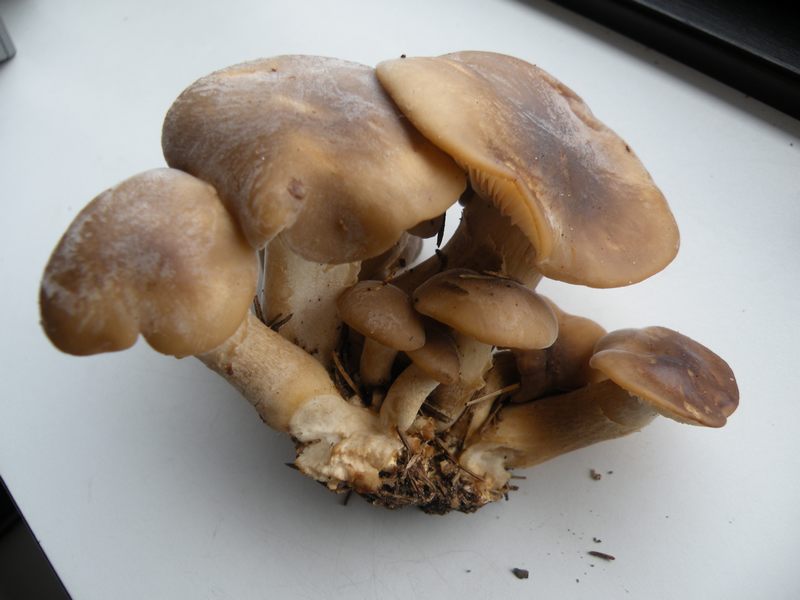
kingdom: Fungi
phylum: Basidiomycota
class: Agaricomycetes
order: Agaricales
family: Lyophyllaceae
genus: Lyophyllum
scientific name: Lyophyllum decastes
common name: Clustered domecap
